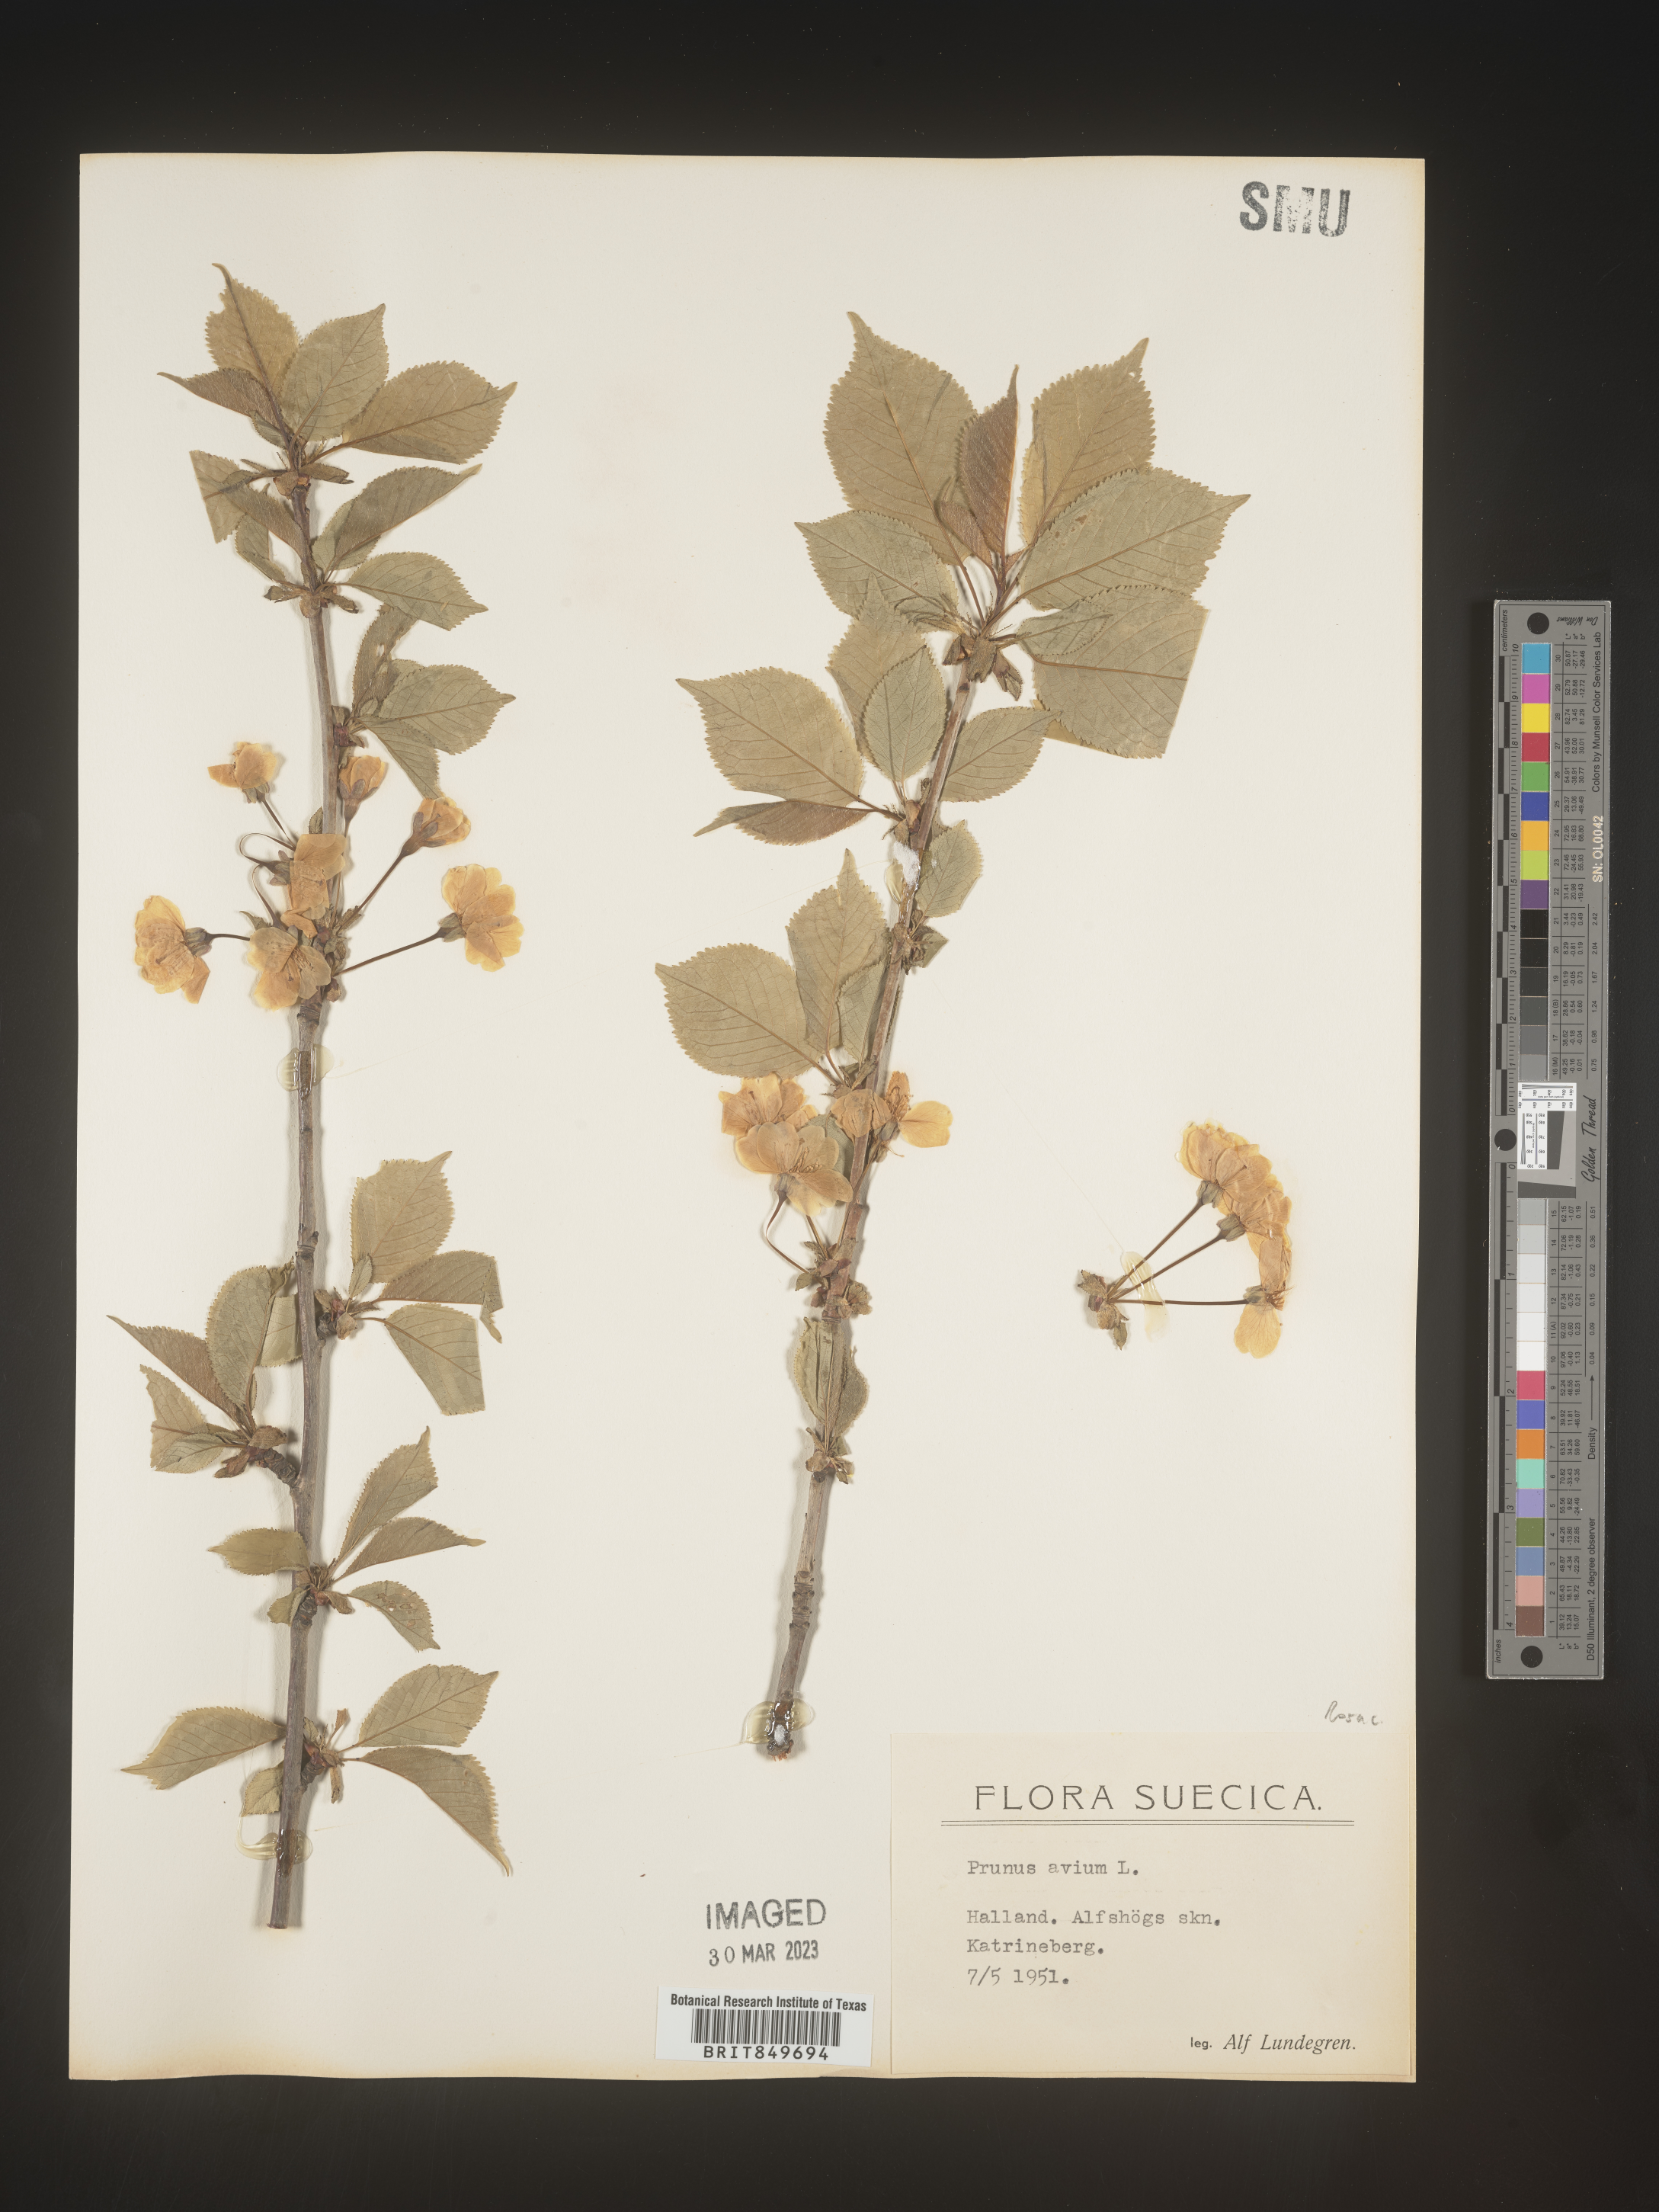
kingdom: Plantae
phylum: Tracheophyta
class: Magnoliopsida
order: Rosales
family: Rosaceae
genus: Prunus
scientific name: Prunus
